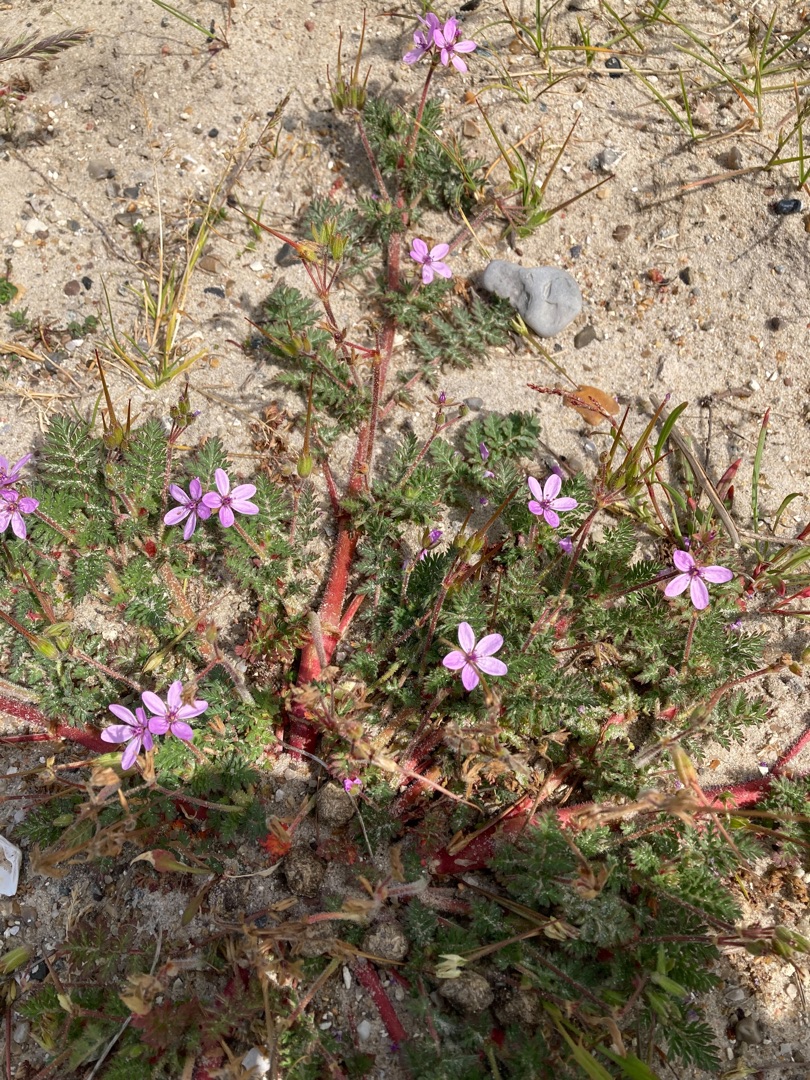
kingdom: Plantae
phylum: Tracheophyta
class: Magnoliopsida
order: Geraniales
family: Geraniaceae
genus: Erodium
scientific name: Erodium cicutarium
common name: Hejrenæb
